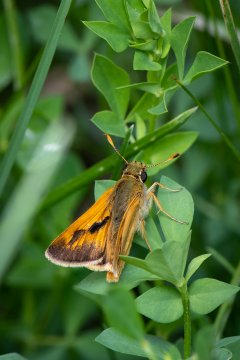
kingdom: Animalia
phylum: Arthropoda
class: Insecta
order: Lepidoptera
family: Hesperiidae
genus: Polites
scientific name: Polites
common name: Long Dash Skipper
